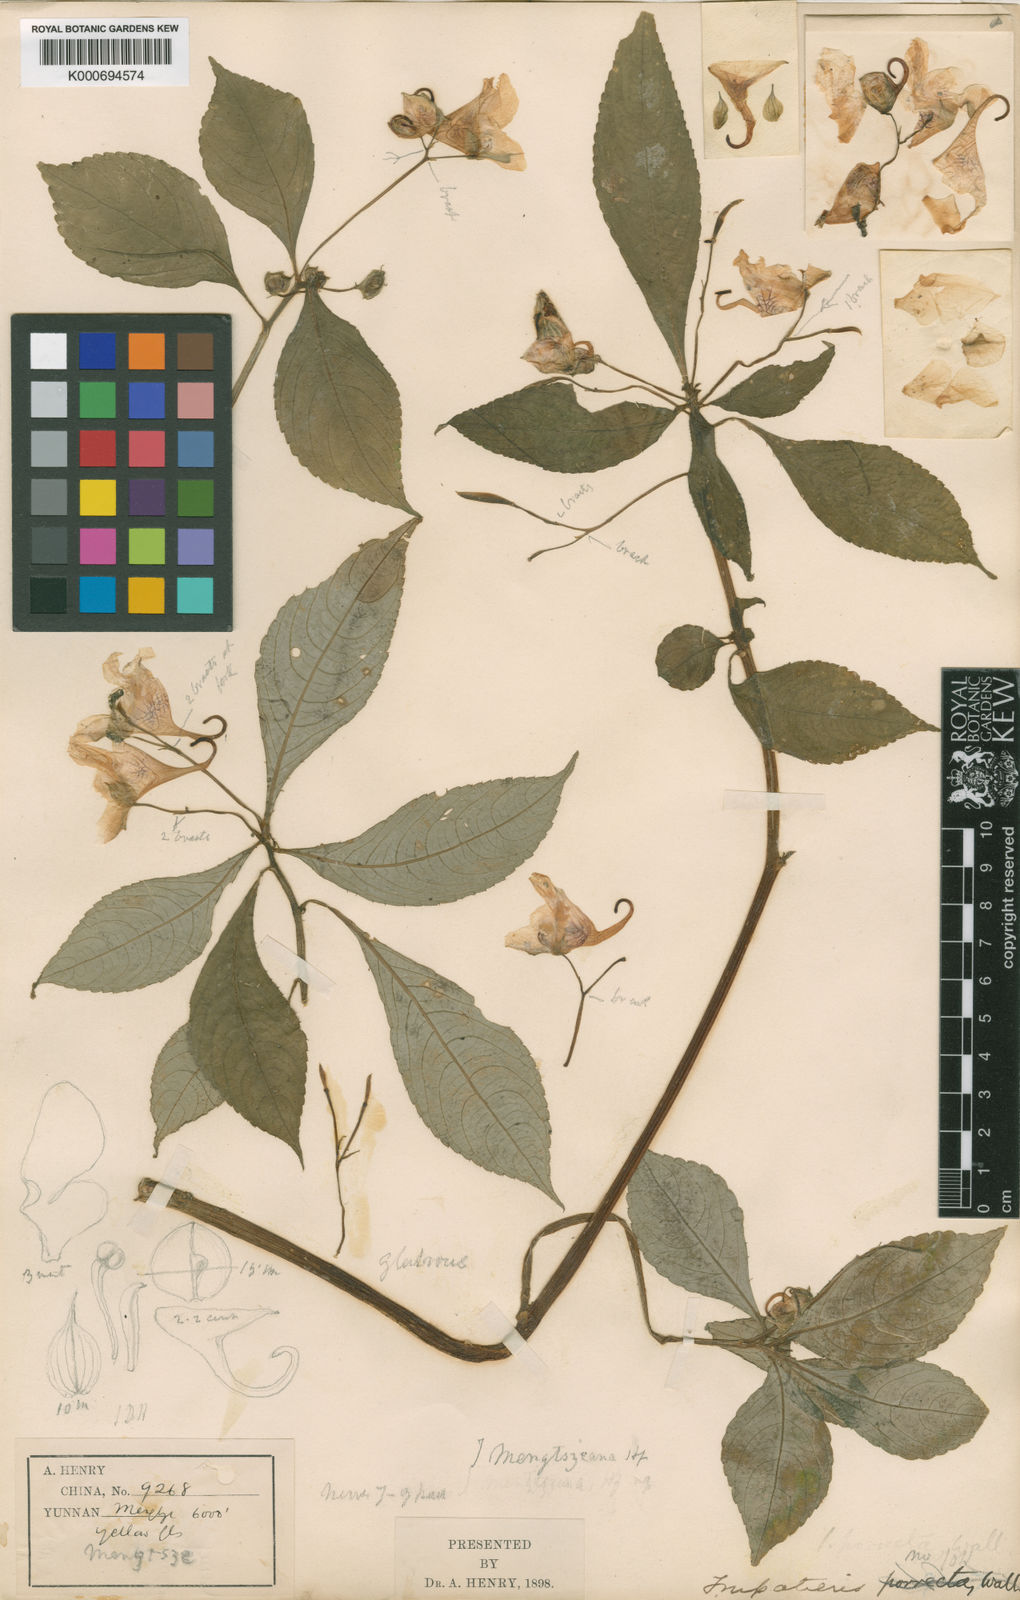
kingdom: Plantae
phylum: Tracheophyta
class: Magnoliopsida
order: Ericales
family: Balsaminaceae
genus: Impatiens
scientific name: Impatiens pulchra
